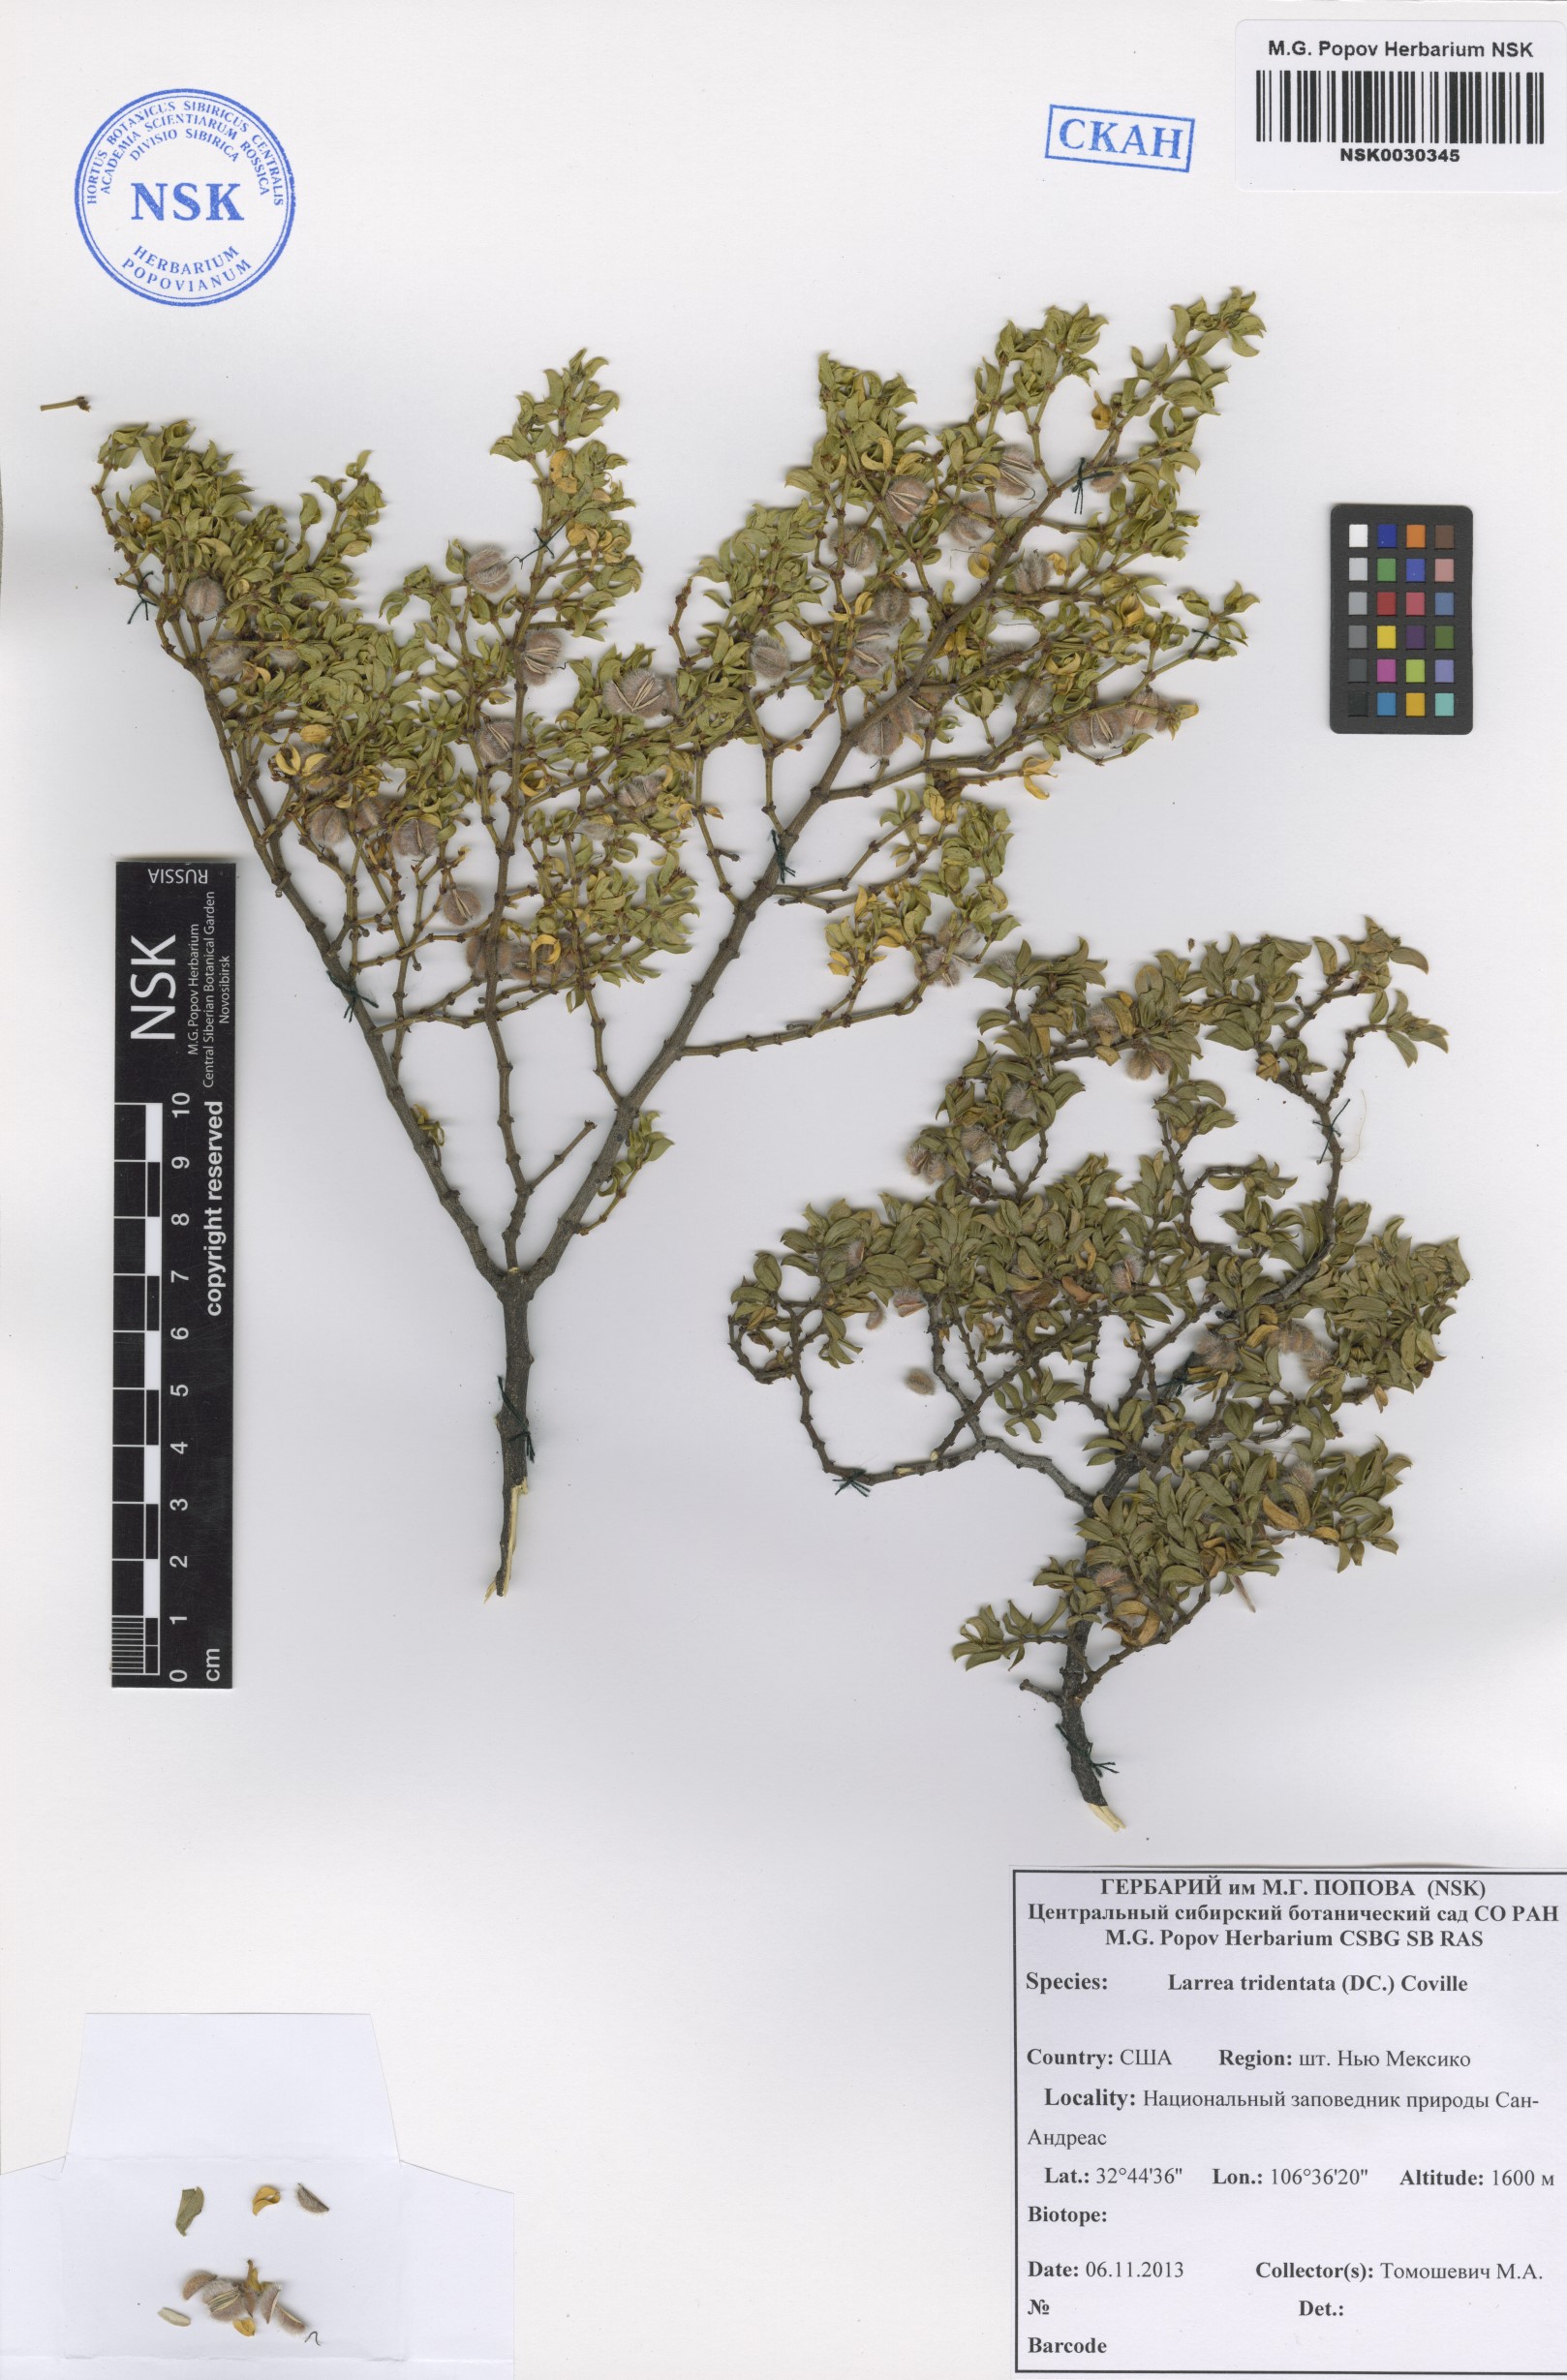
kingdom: Plantae
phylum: Tracheophyta
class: Magnoliopsida
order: Zygophyllales
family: Zygophyllaceae
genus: Larrea
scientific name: Larrea tridentata
